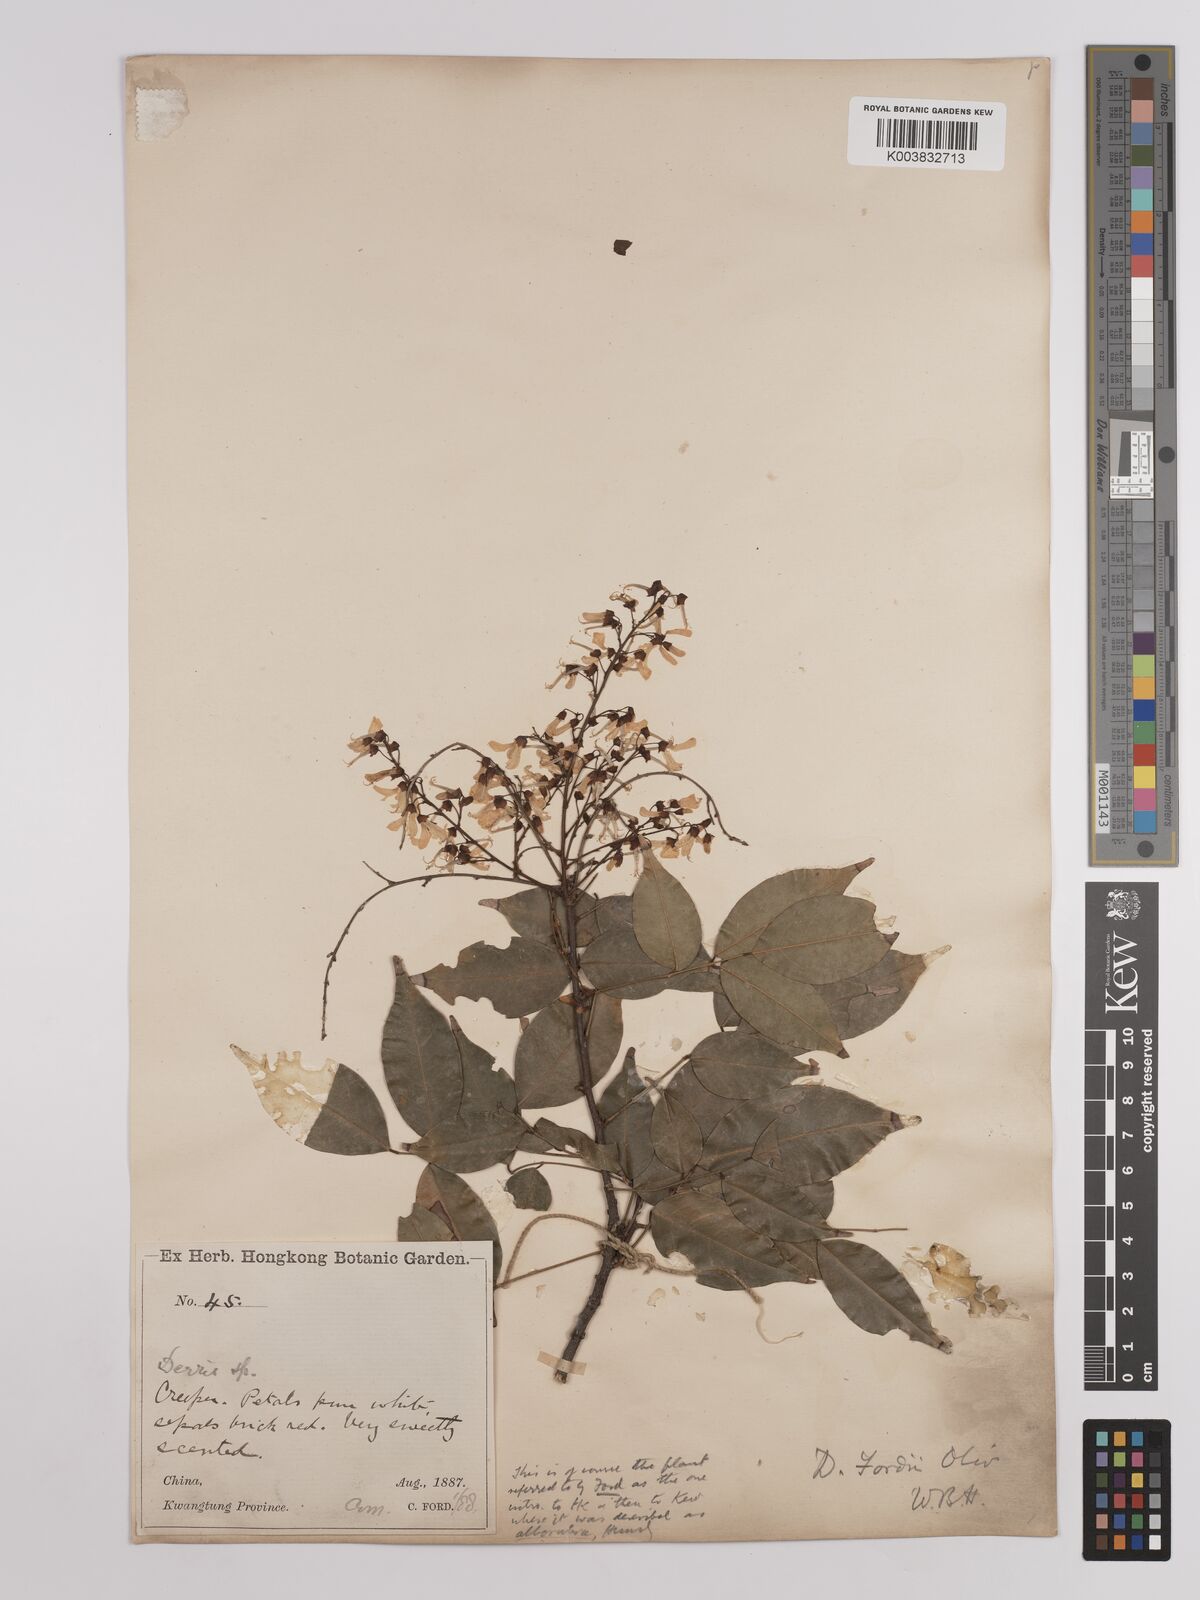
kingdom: Plantae
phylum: Tracheophyta
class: Magnoliopsida
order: Fabales
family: Fabaceae
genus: Derris
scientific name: Derris fordii
